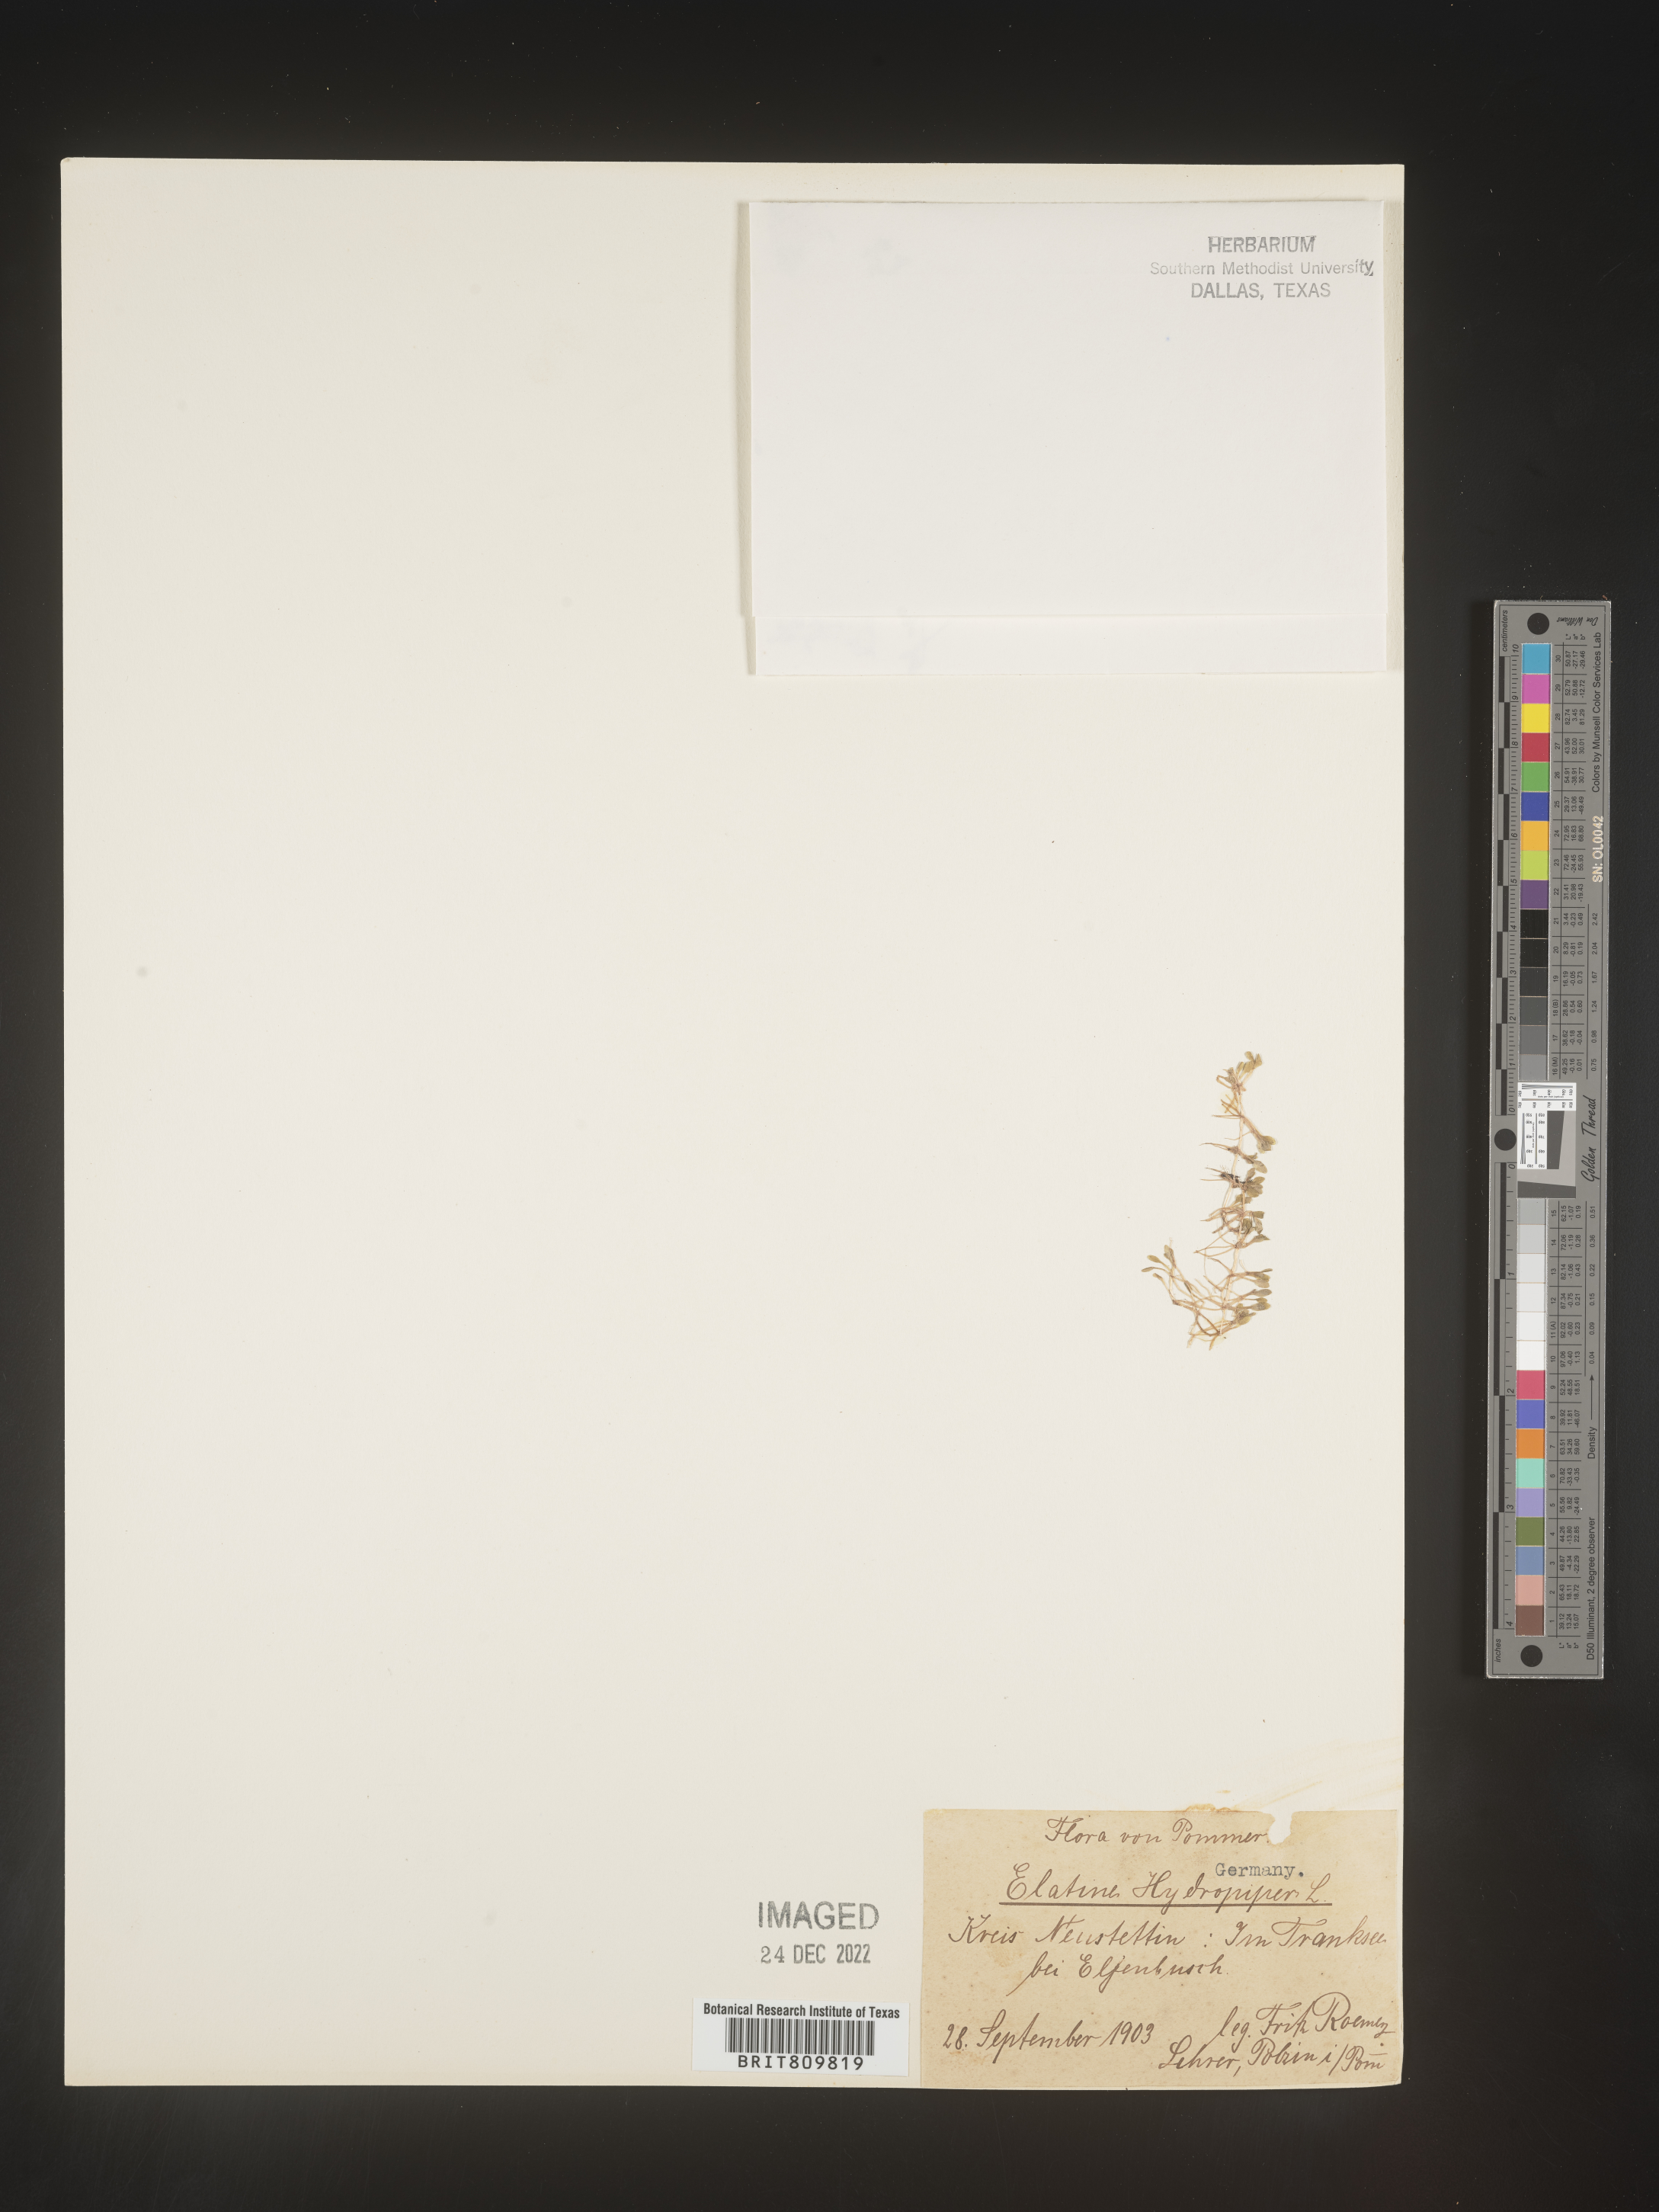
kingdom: Plantae
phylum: Tracheophyta
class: Magnoliopsida
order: Malpighiales
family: Elatinaceae
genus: Elatine
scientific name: Elatine
